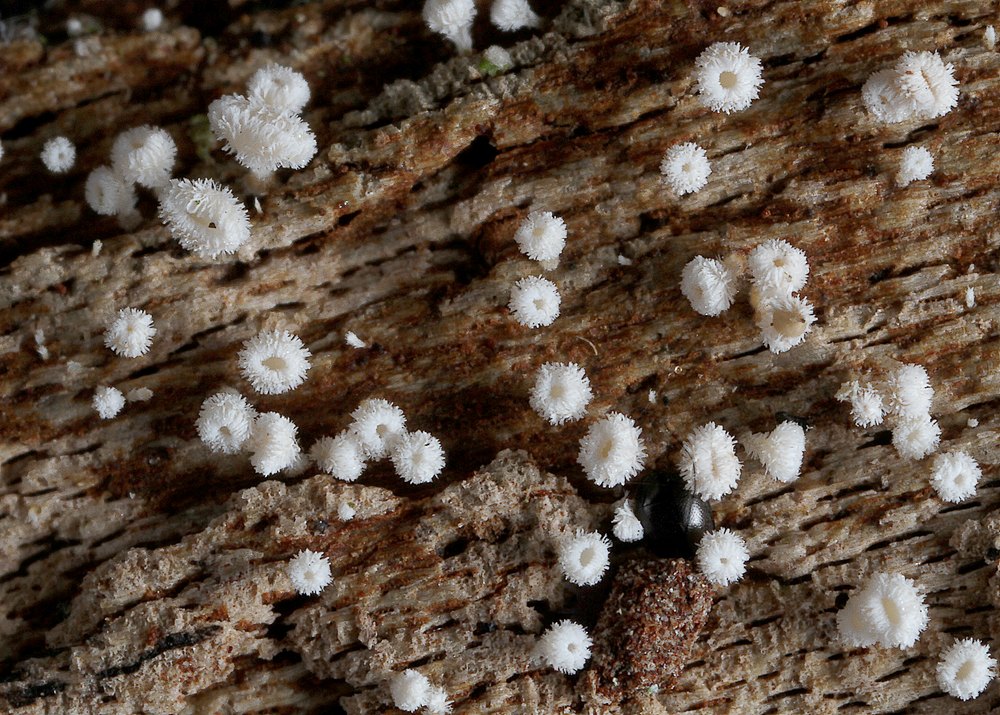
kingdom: Fungi
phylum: Ascomycota
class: Leotiomycetes
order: Helotiales
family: Lachnaceae
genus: Lachnum
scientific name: Lachnum papyraceum
